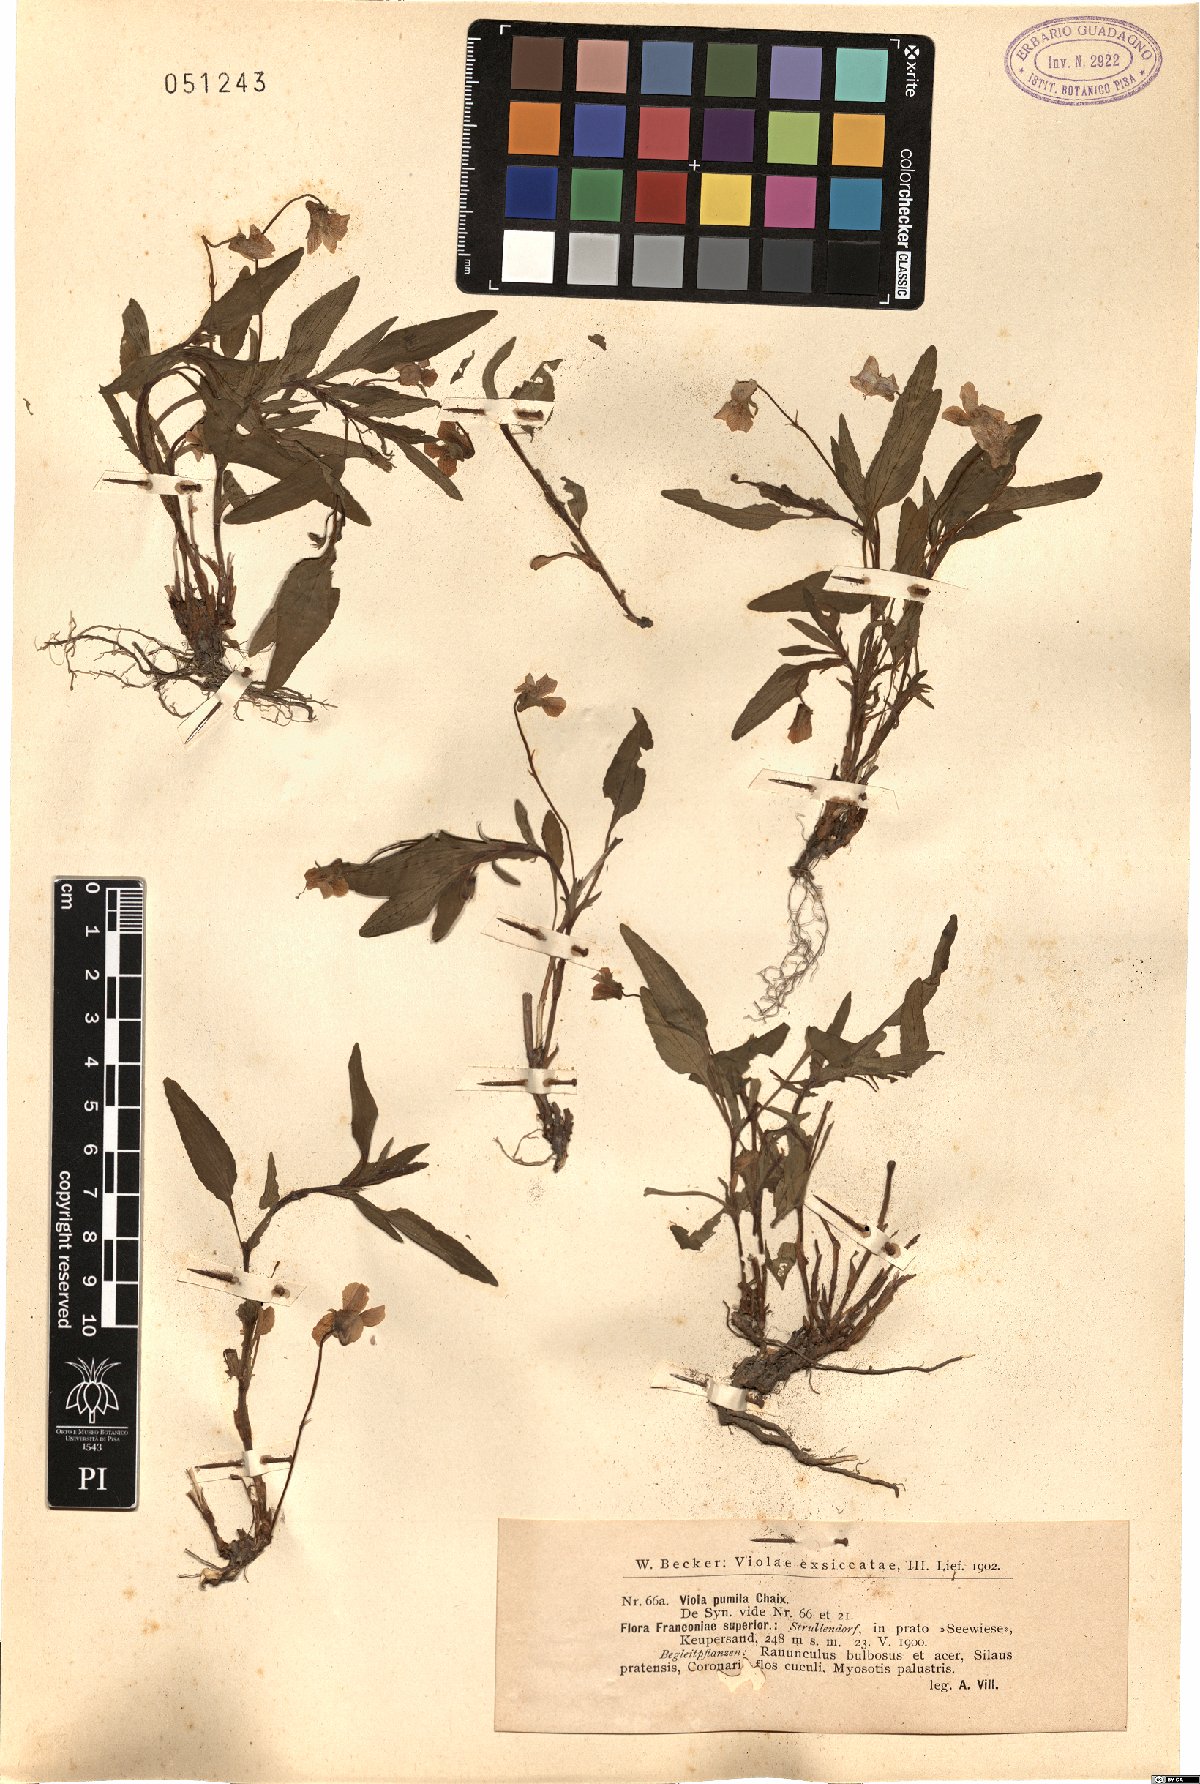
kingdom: Plantae
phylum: Tracheophyta
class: Magnoliopsida
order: Malpighiales
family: Violaceae
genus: Viola
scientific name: Viola pumila
